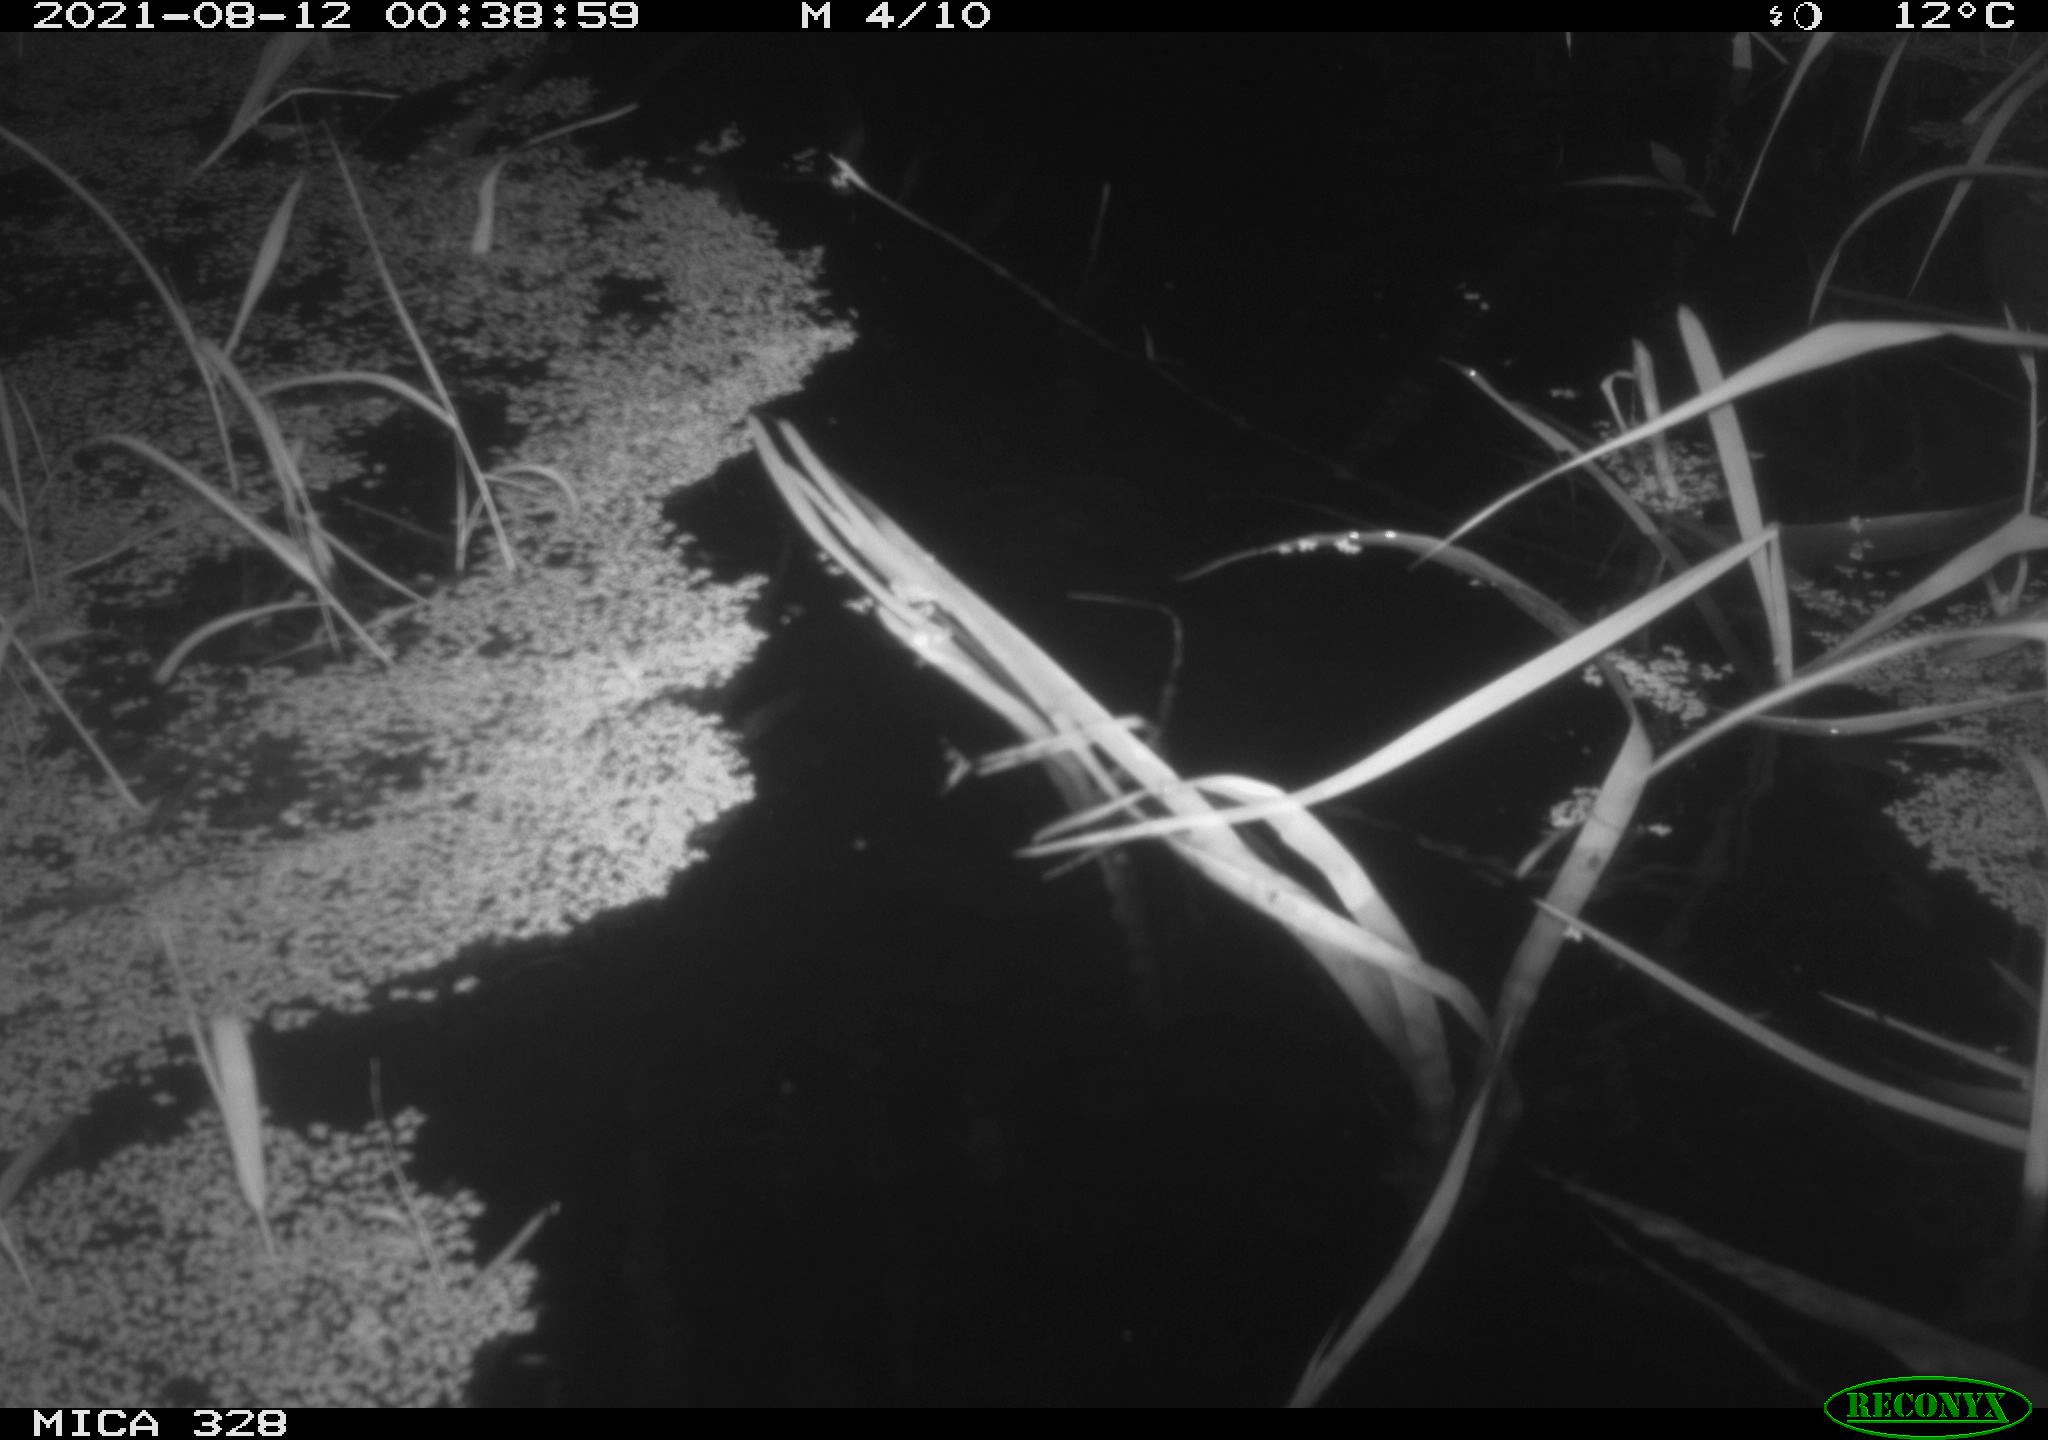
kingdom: Animalia
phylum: Chordata
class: Mammalia
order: Rodentia
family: Cricetidae
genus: Ondatra
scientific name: Ondatra zibethicus
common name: Muskrat
